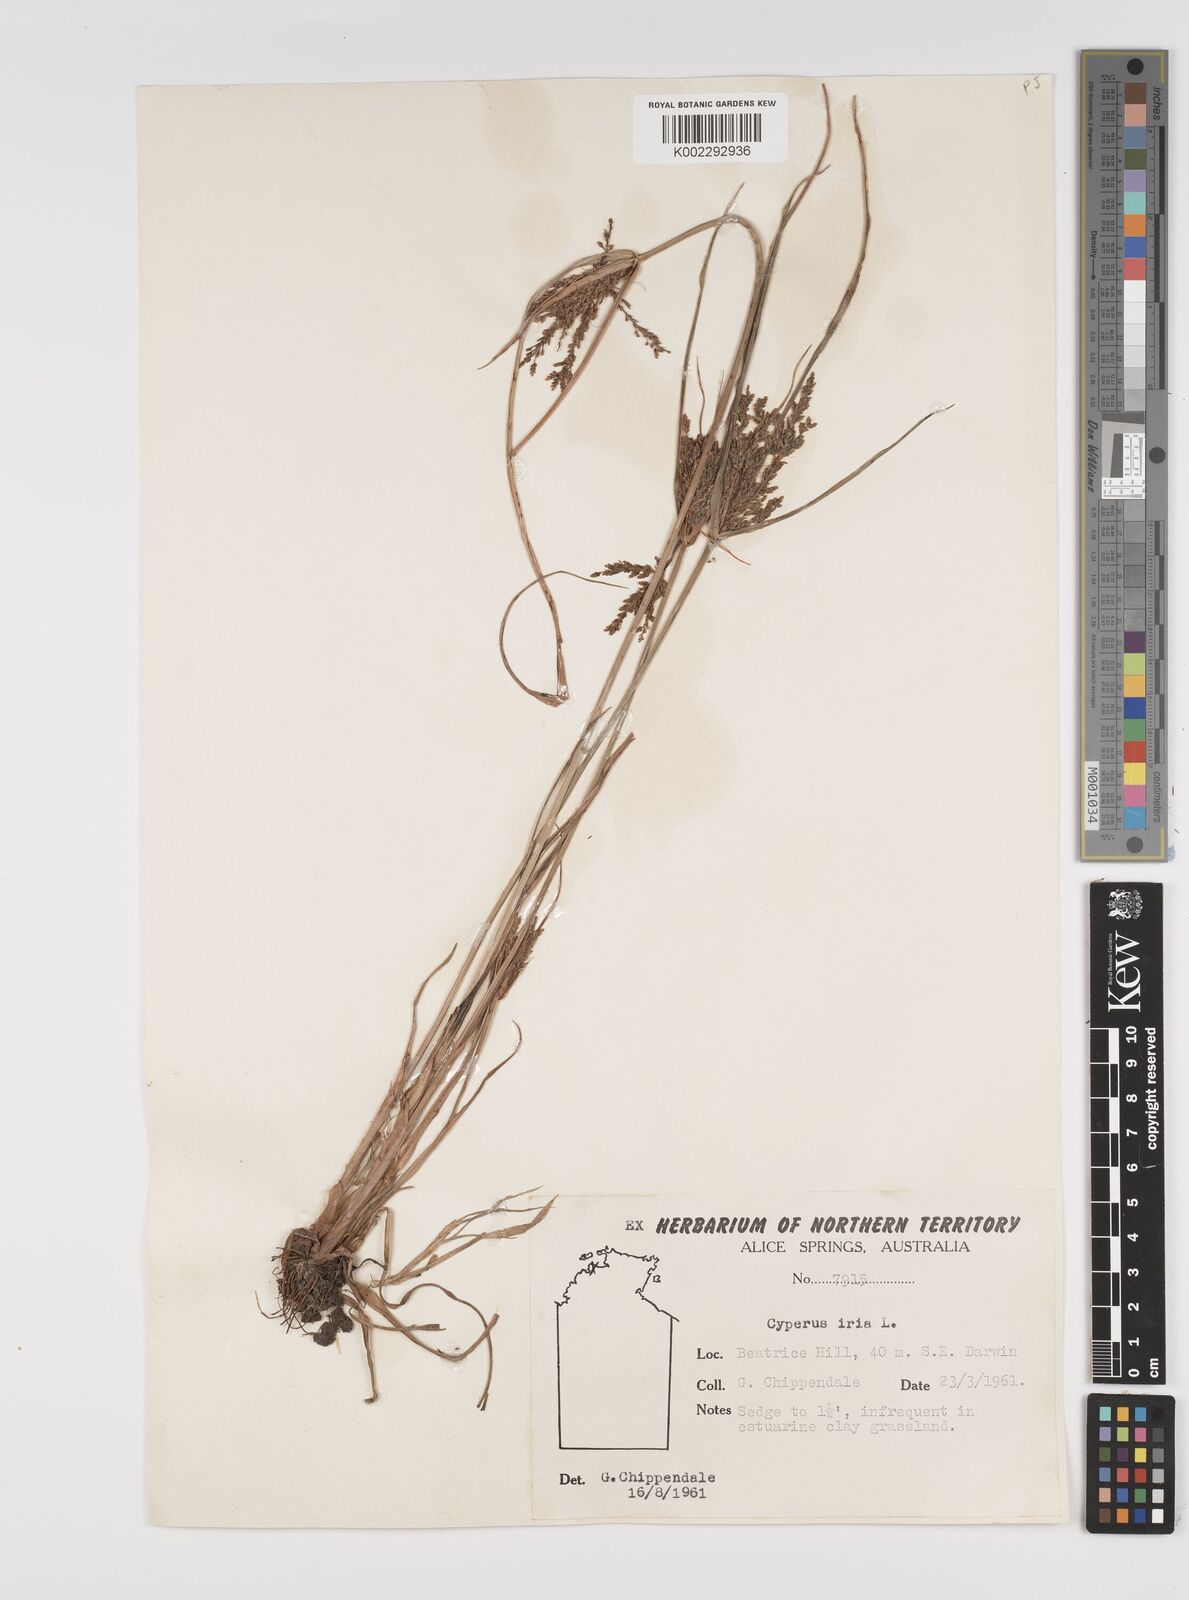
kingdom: Plantae
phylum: Tracheophyta
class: Liliopsida
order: Poales
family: Cyperaceae
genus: Cyperus
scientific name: Cyperus iria
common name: Ricefield flatsedge
